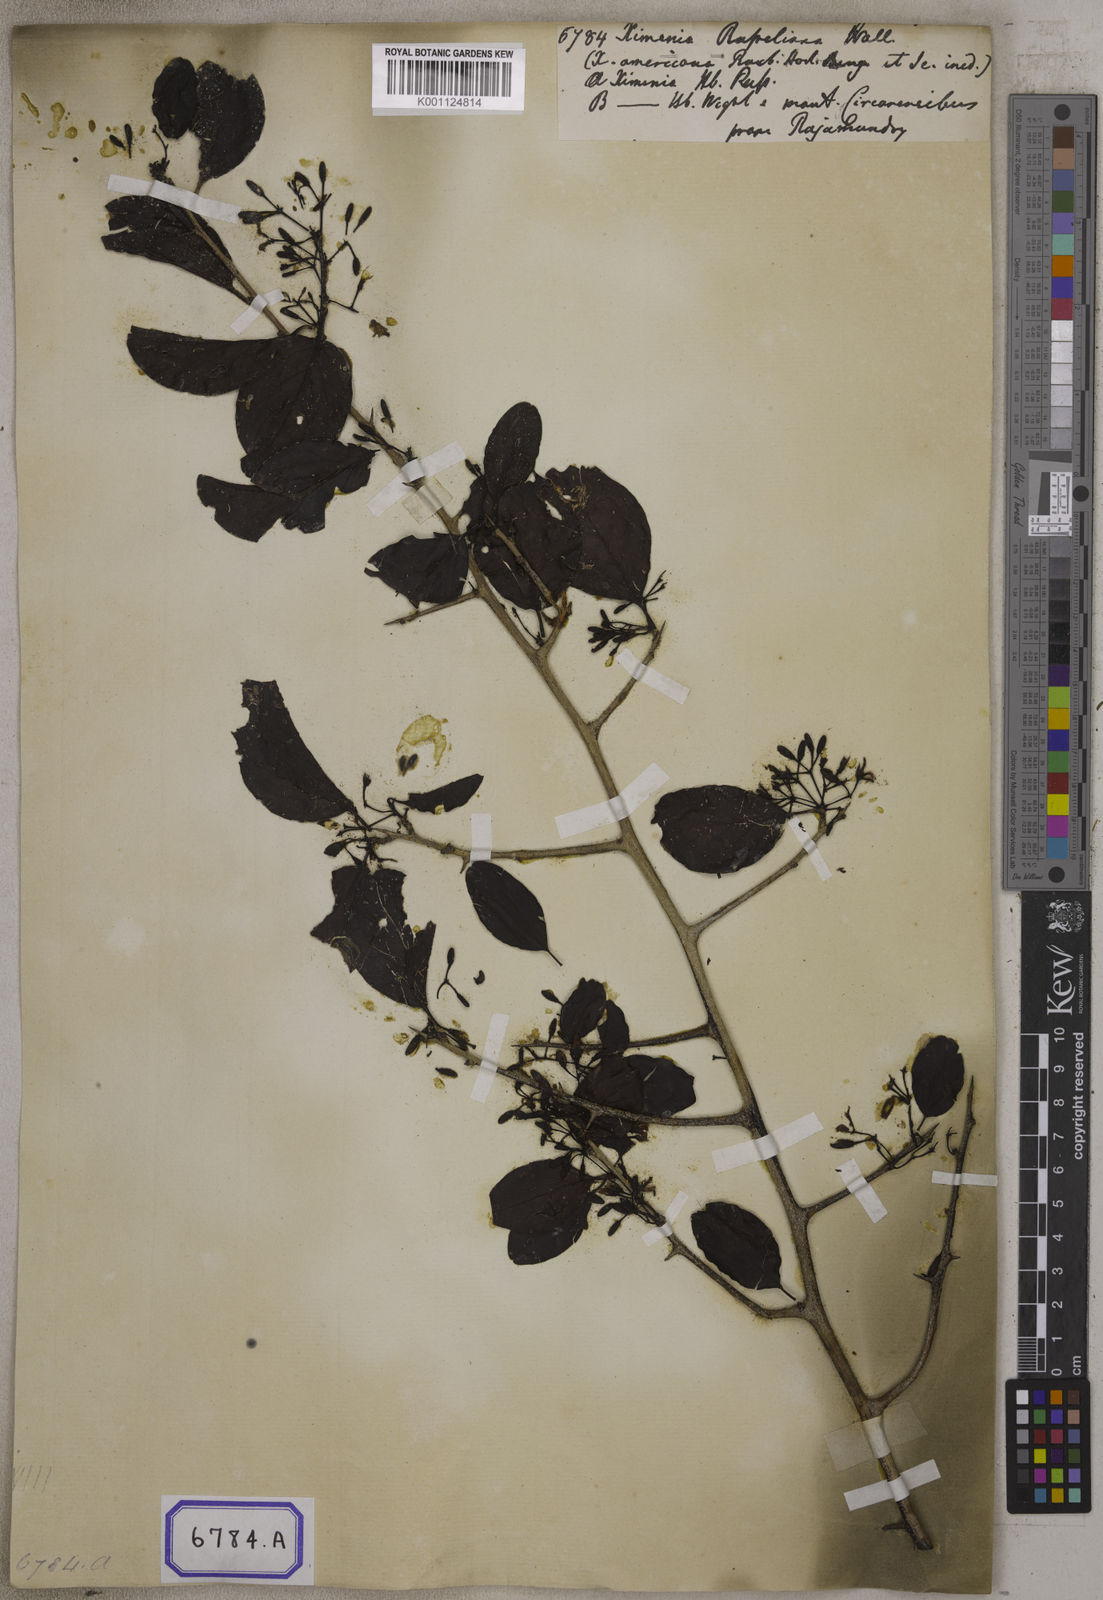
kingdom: Plantae
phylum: Tracheophyta
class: Magnoliopsida
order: Santalales
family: Ximeniaceae
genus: Ximenia
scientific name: Ximenia americana
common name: Tallowwood
